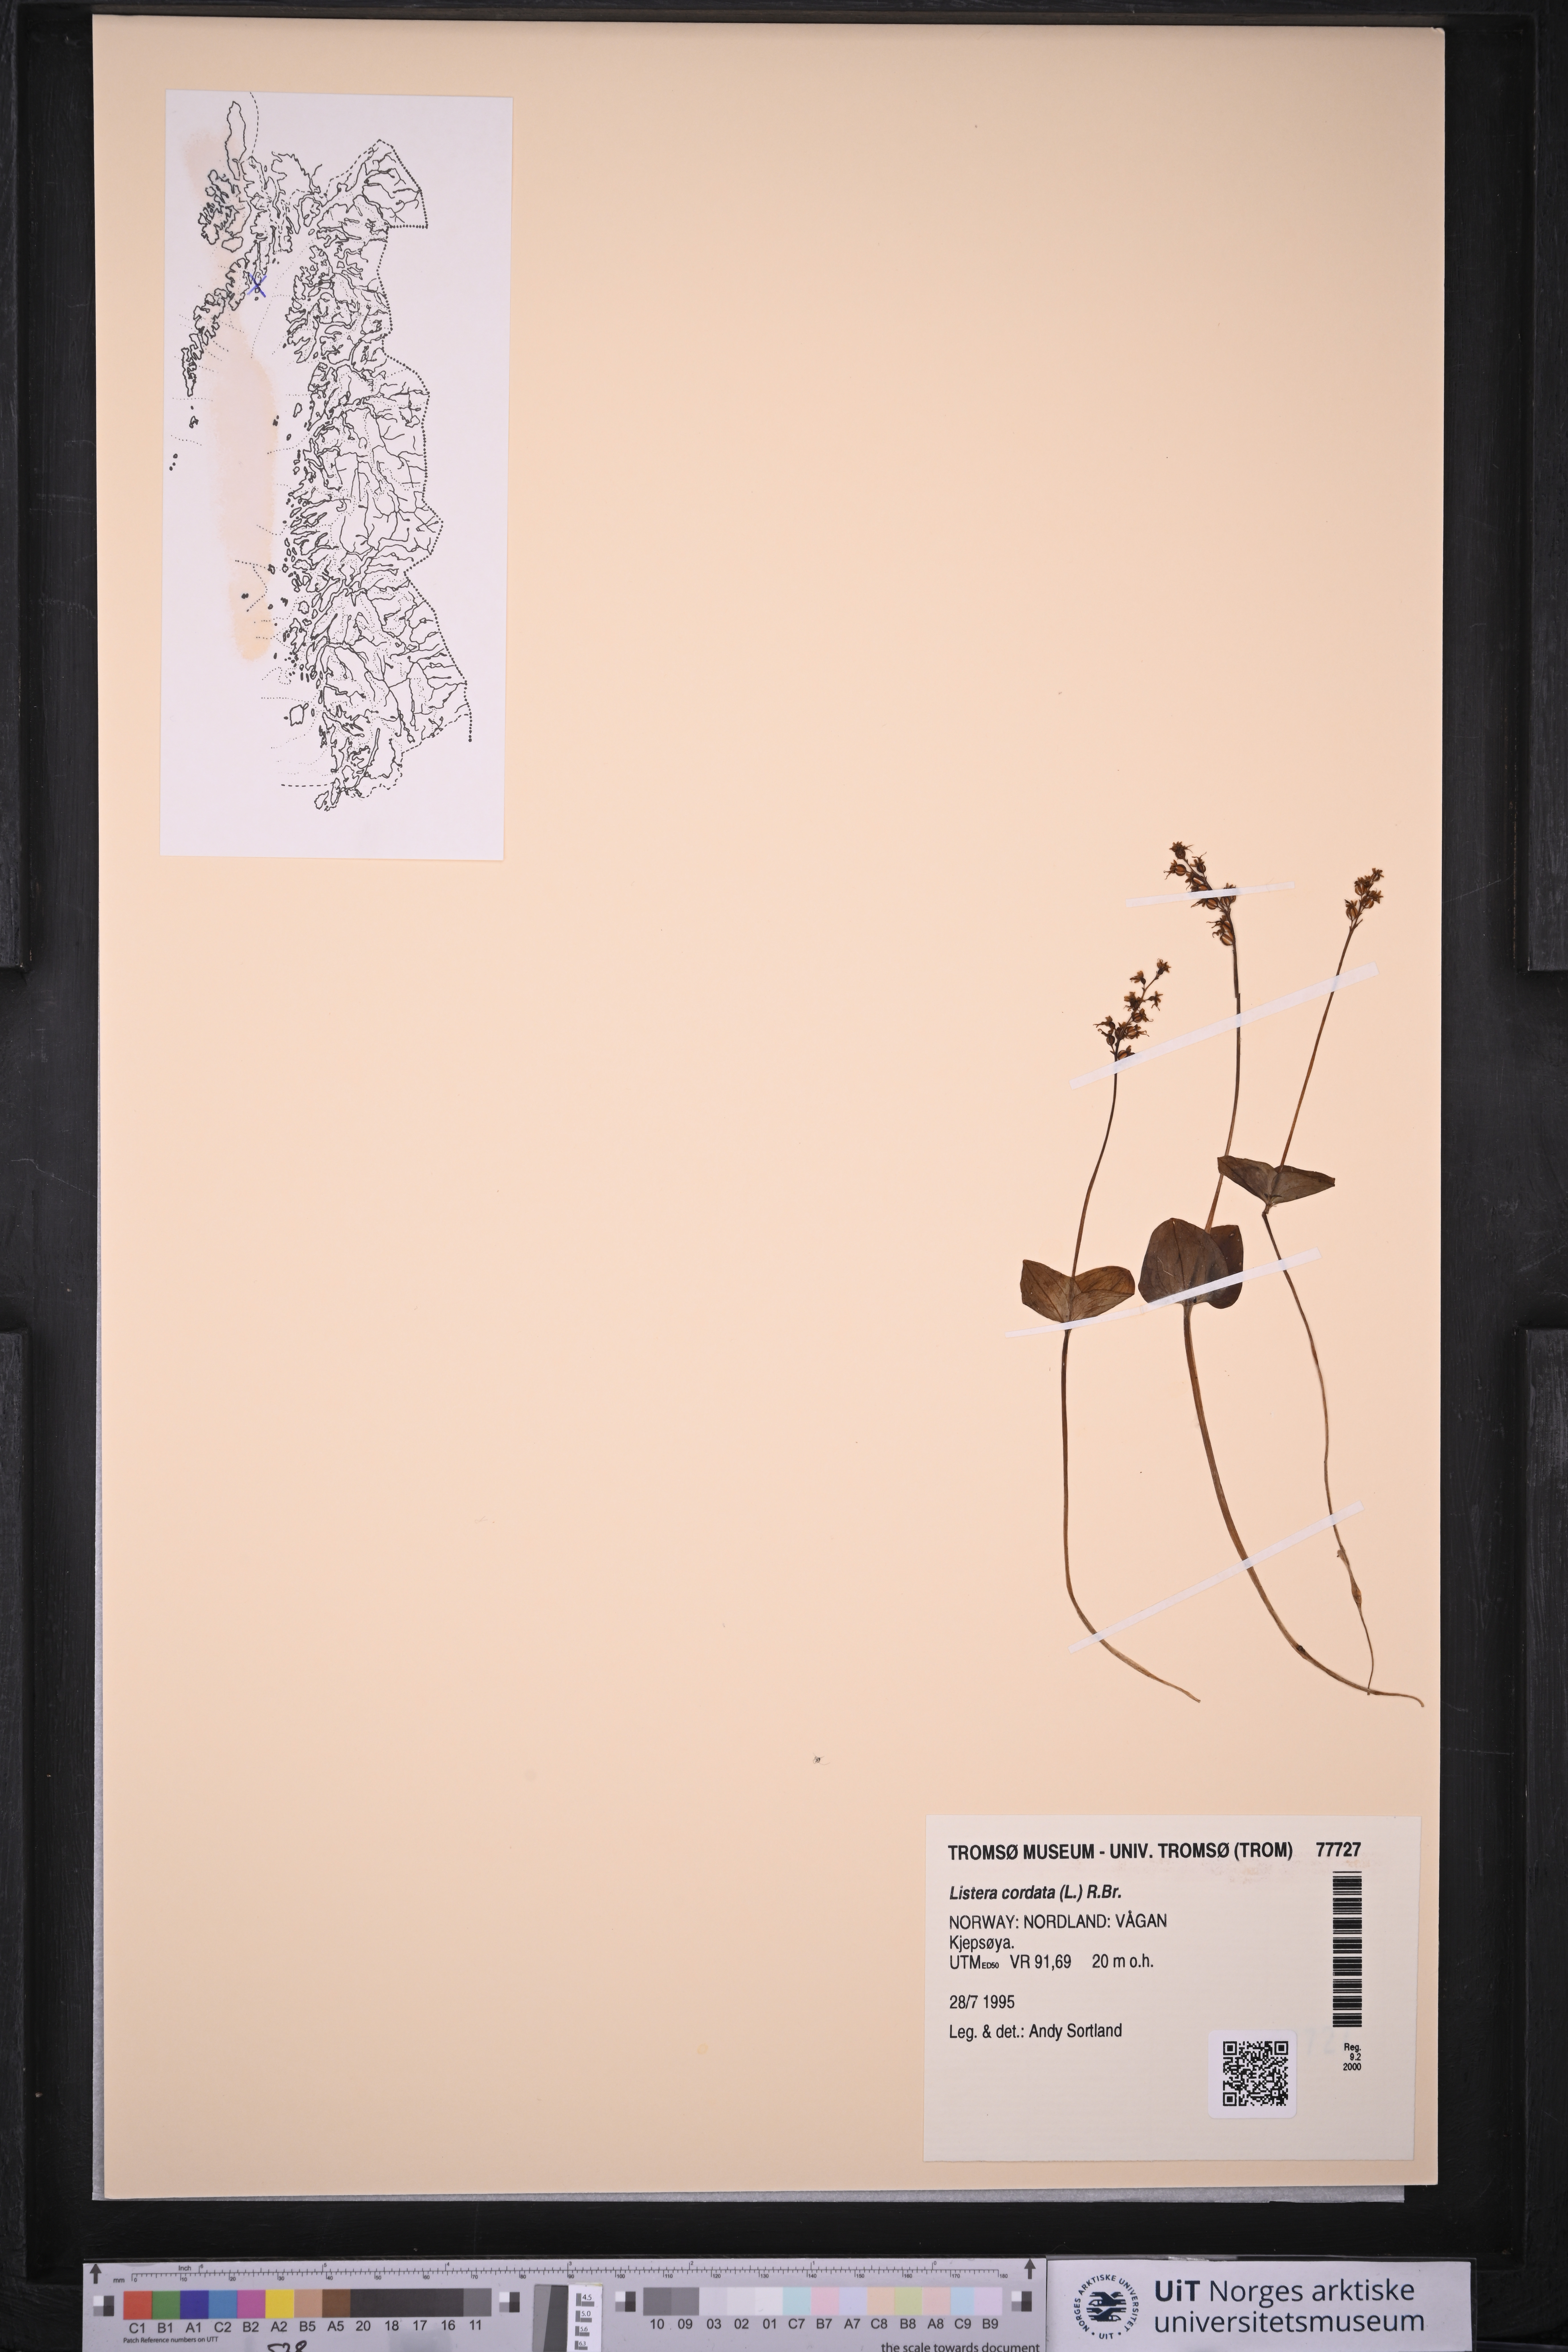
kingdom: Plantae
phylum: Tracheophyta
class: Liliopsida
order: Asparagales
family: Orchidaceae
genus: Neottia
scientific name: Neottia cordata
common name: Lesser twayblade
